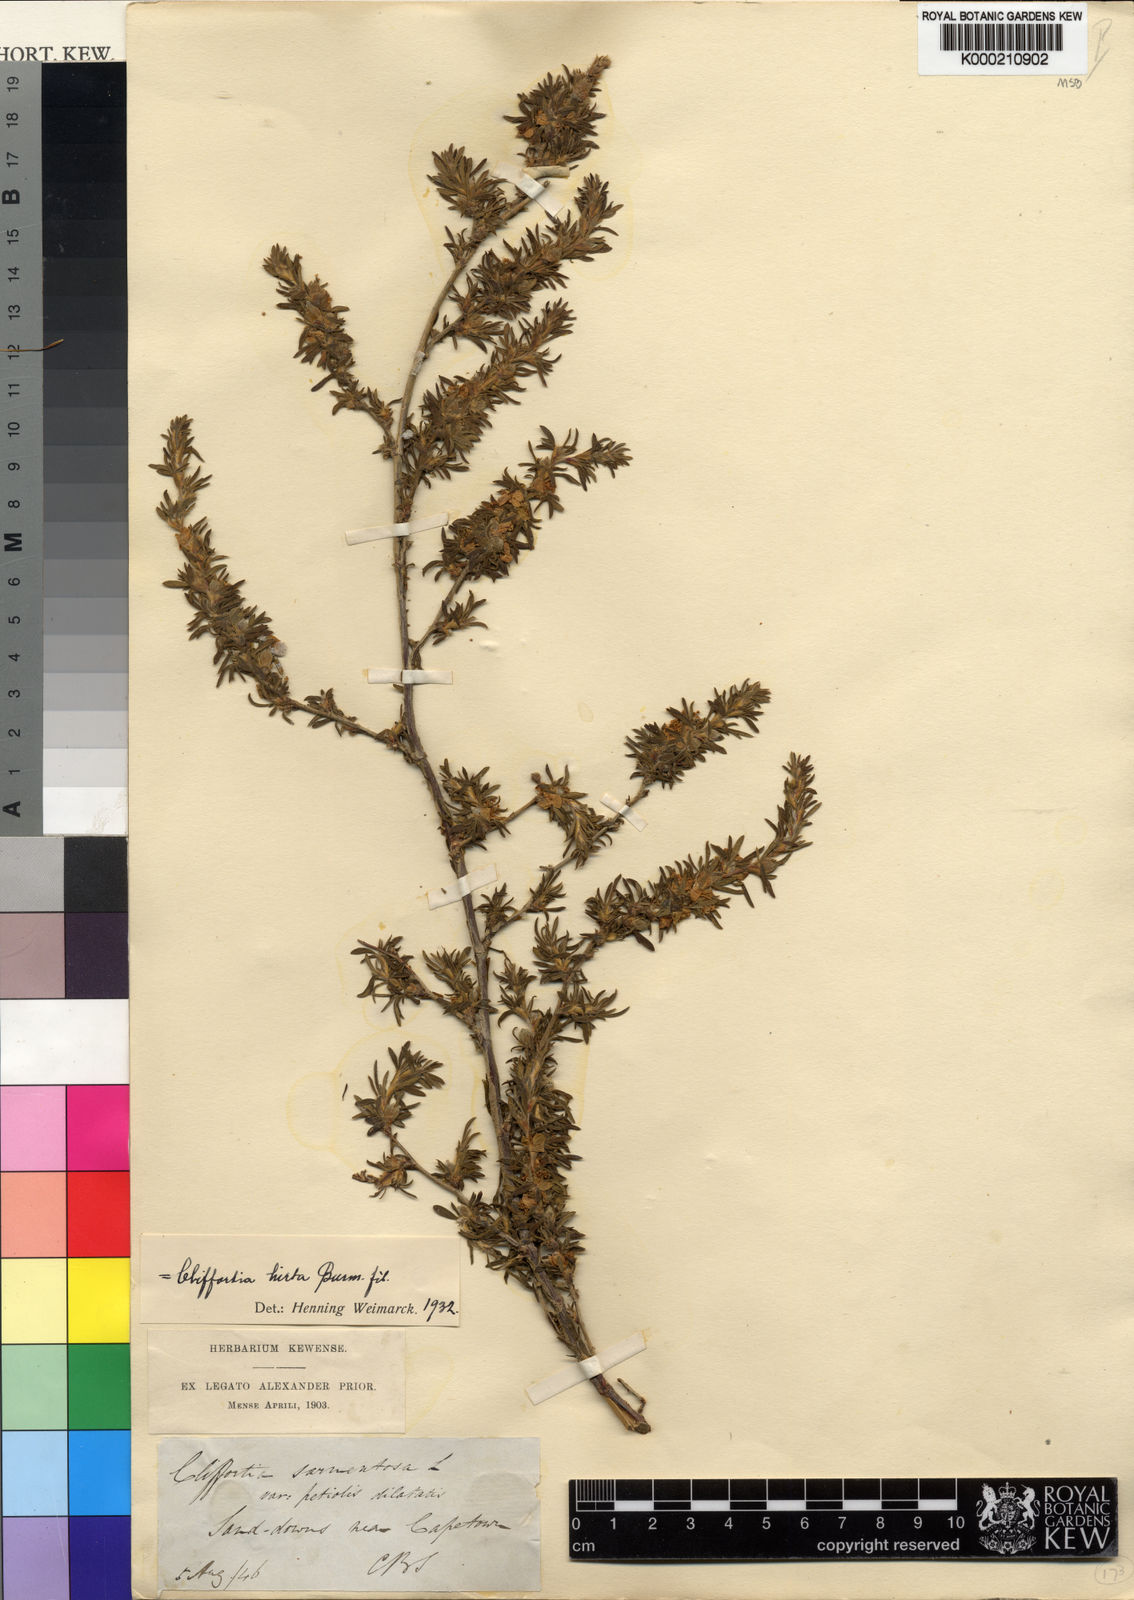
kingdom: Plantae
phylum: Tracheophyta
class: Magnoliopsida
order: Rosales
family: Rosaceae
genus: Cliffortia
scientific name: Cliffortia hirta
